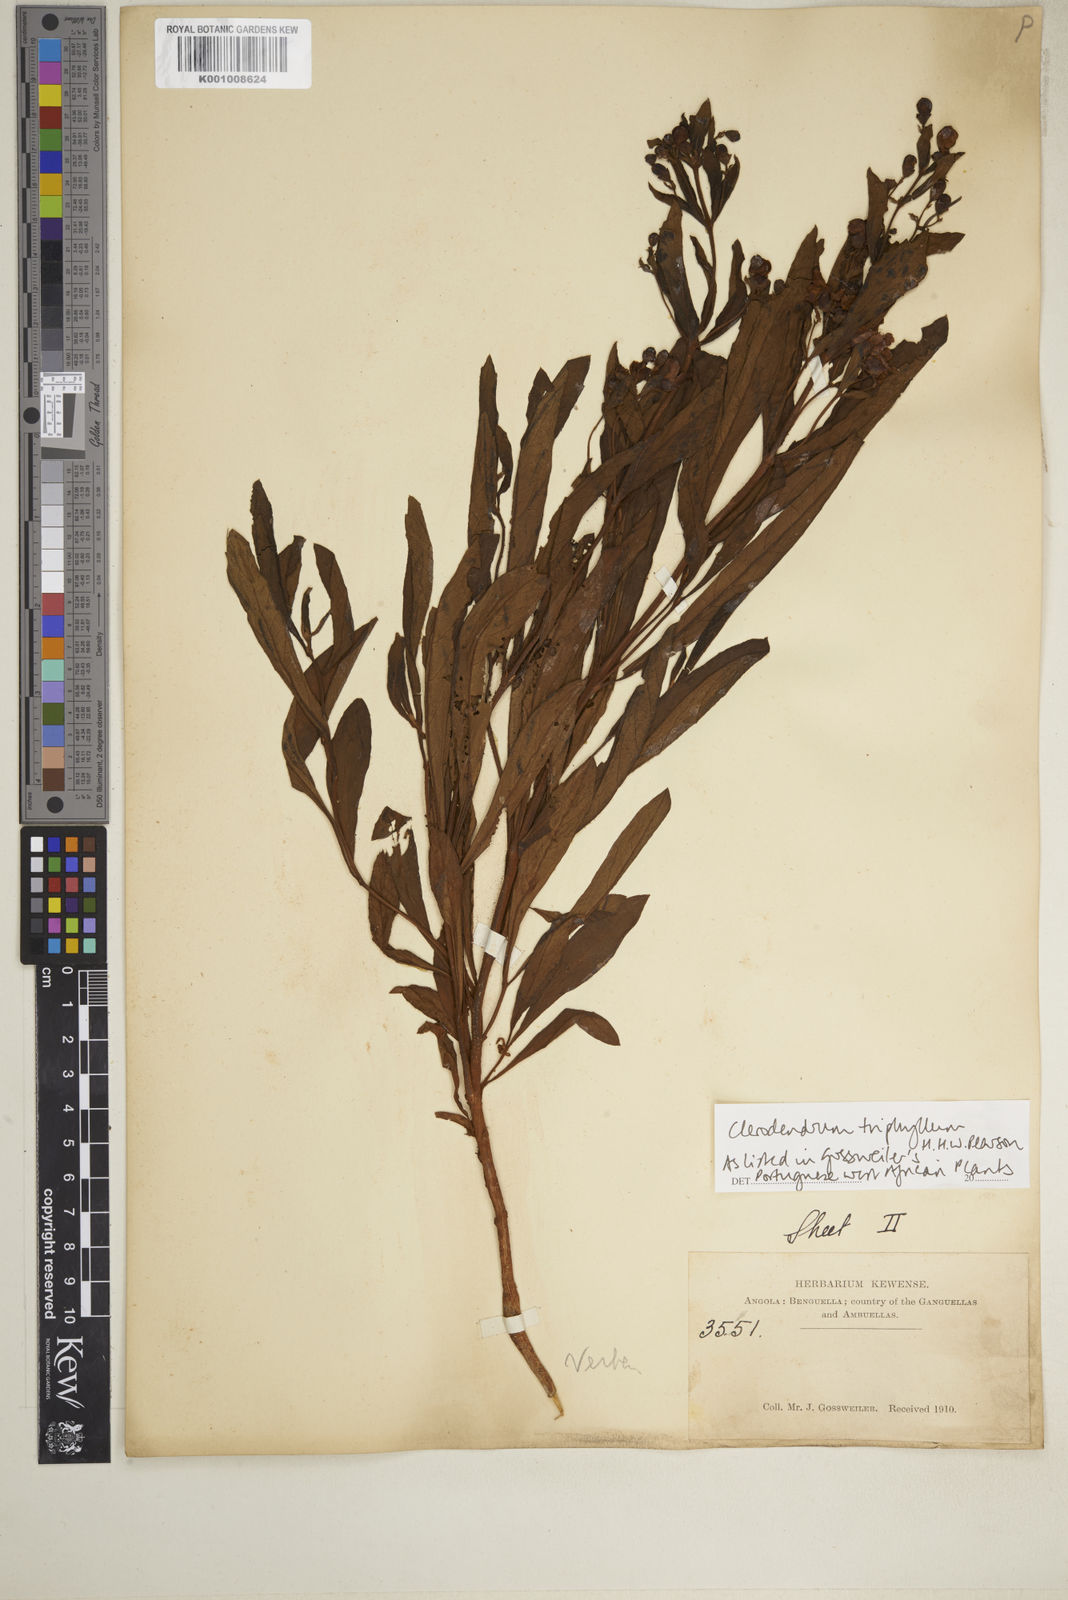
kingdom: Plantae
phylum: Tracheophyta
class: Magnoliopsida
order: Lamiales
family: Lamiaceae
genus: Rotheca
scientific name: Rotheca hirsuta
